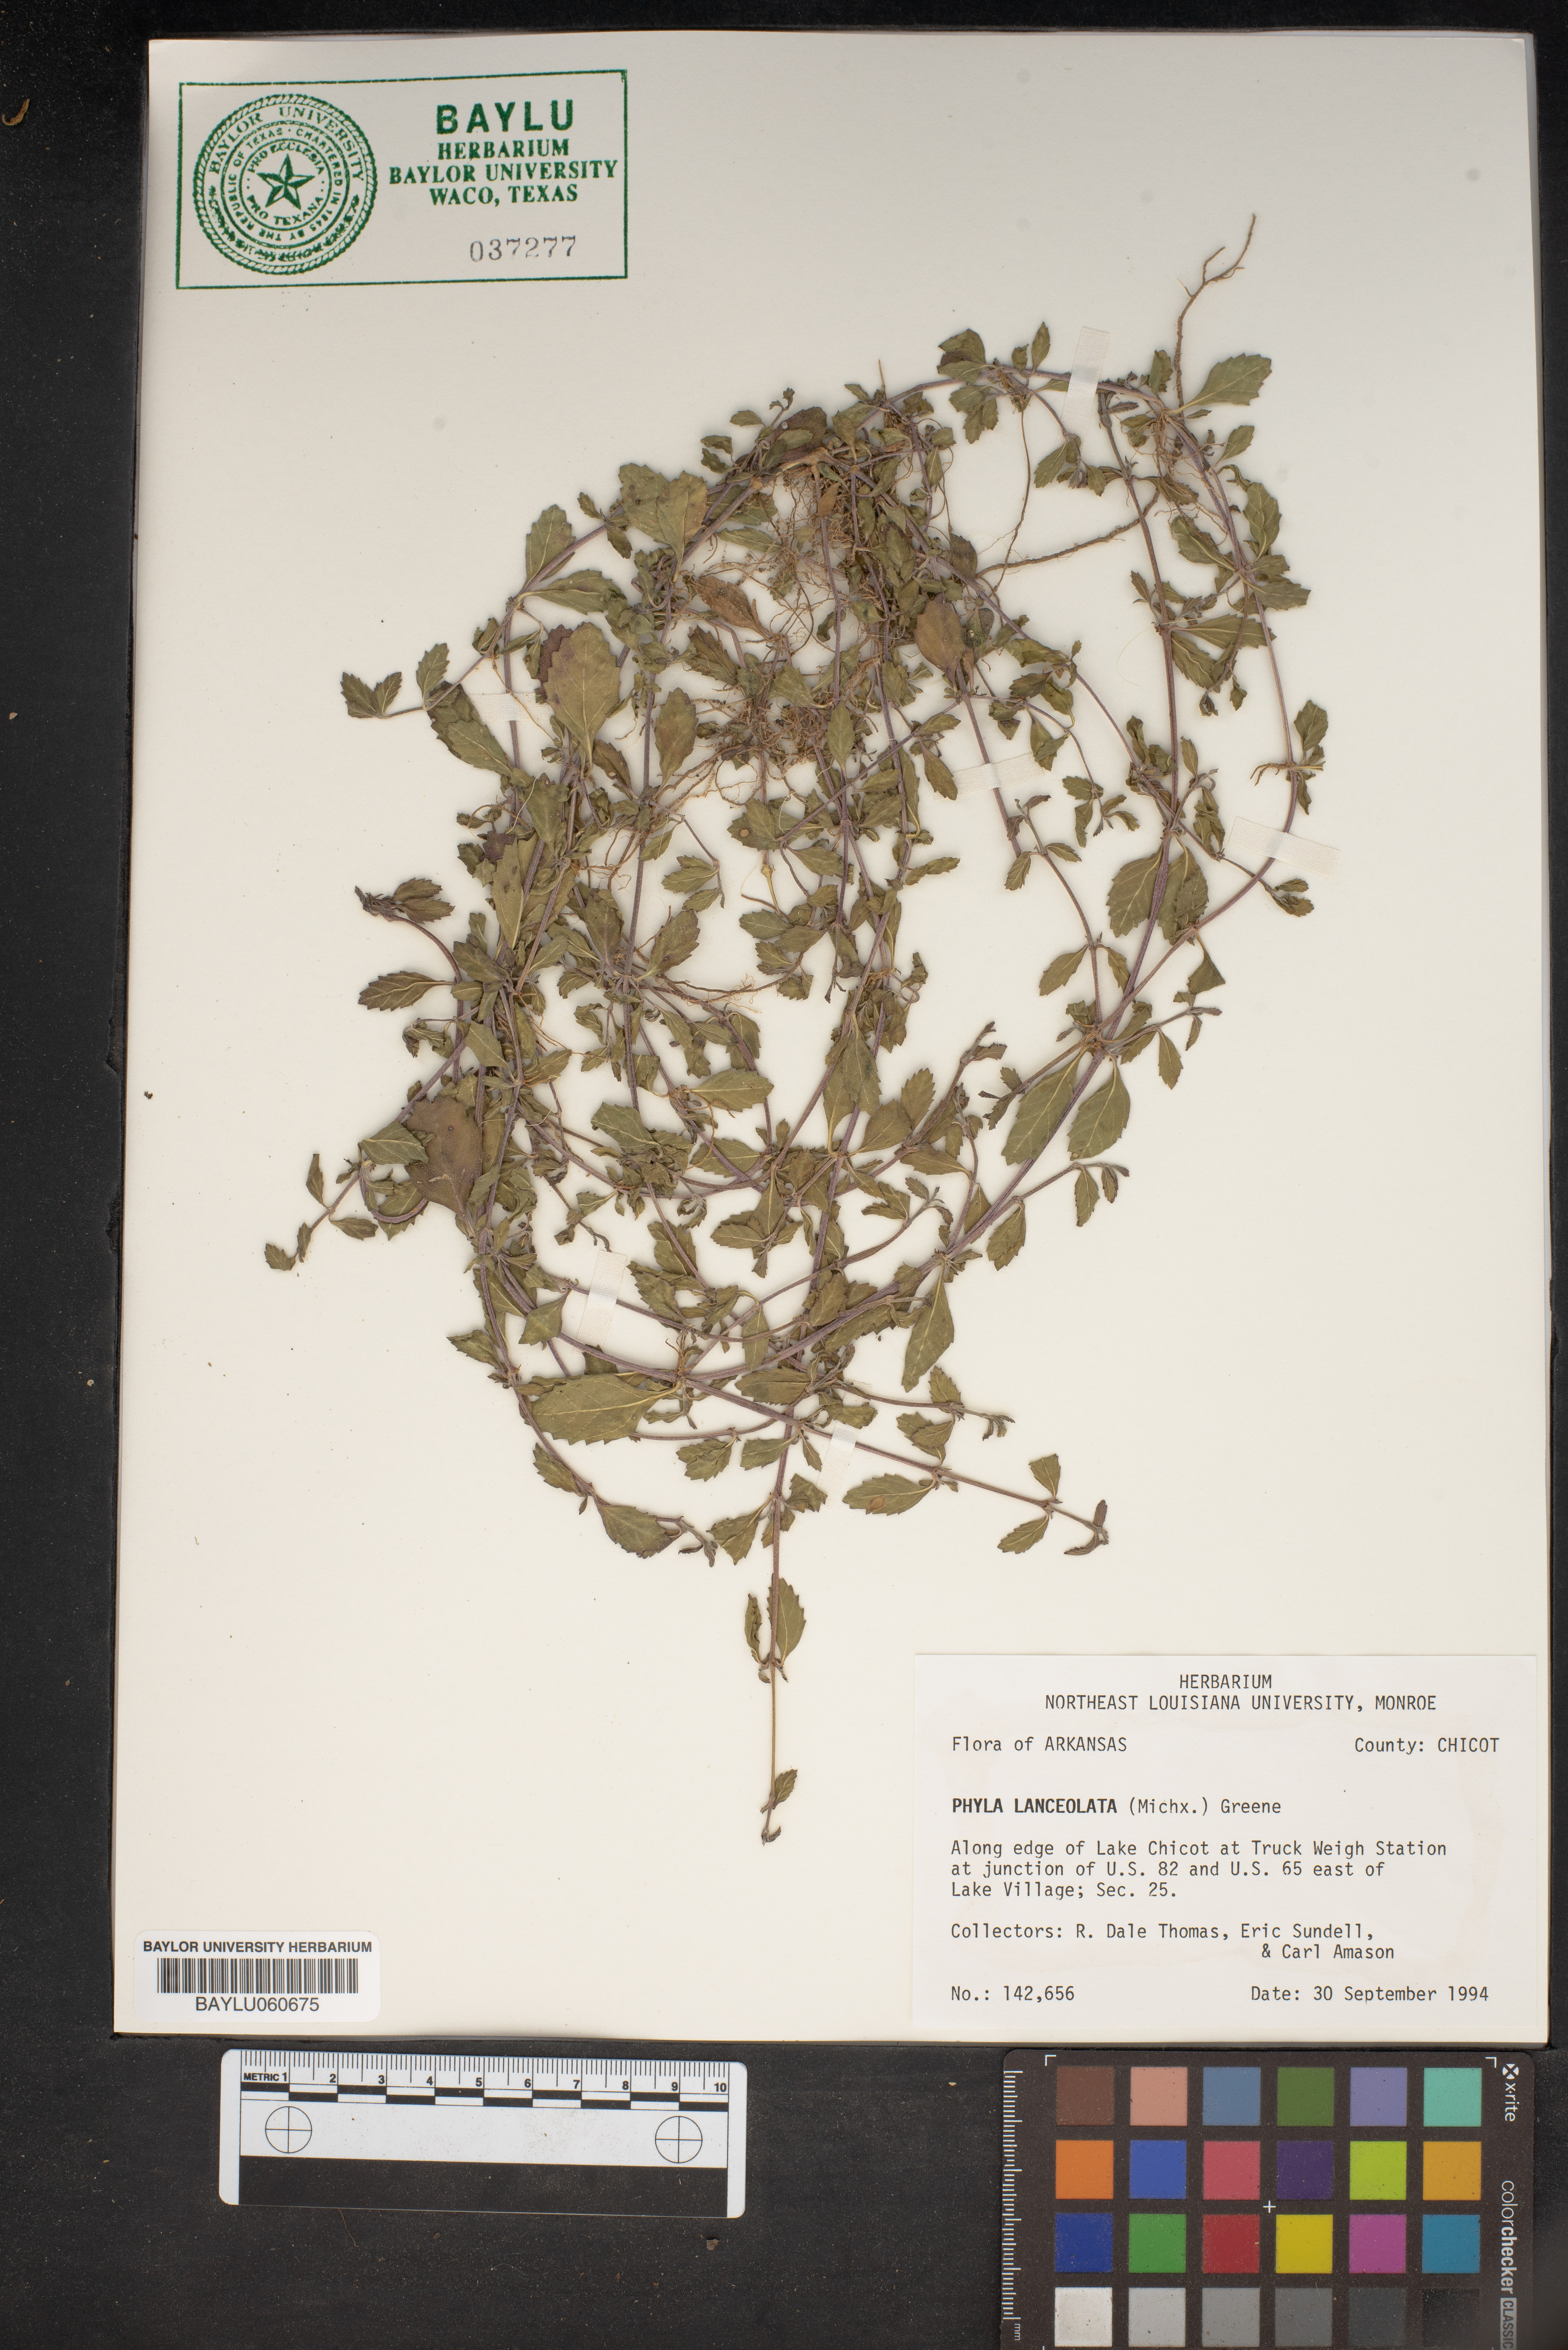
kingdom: Plantae
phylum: Tracheophyta
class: Magnoliopsida
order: Lamiales
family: Verbenaceae
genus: Phyla
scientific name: Phyla lanceolata
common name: Northern fogfruit
